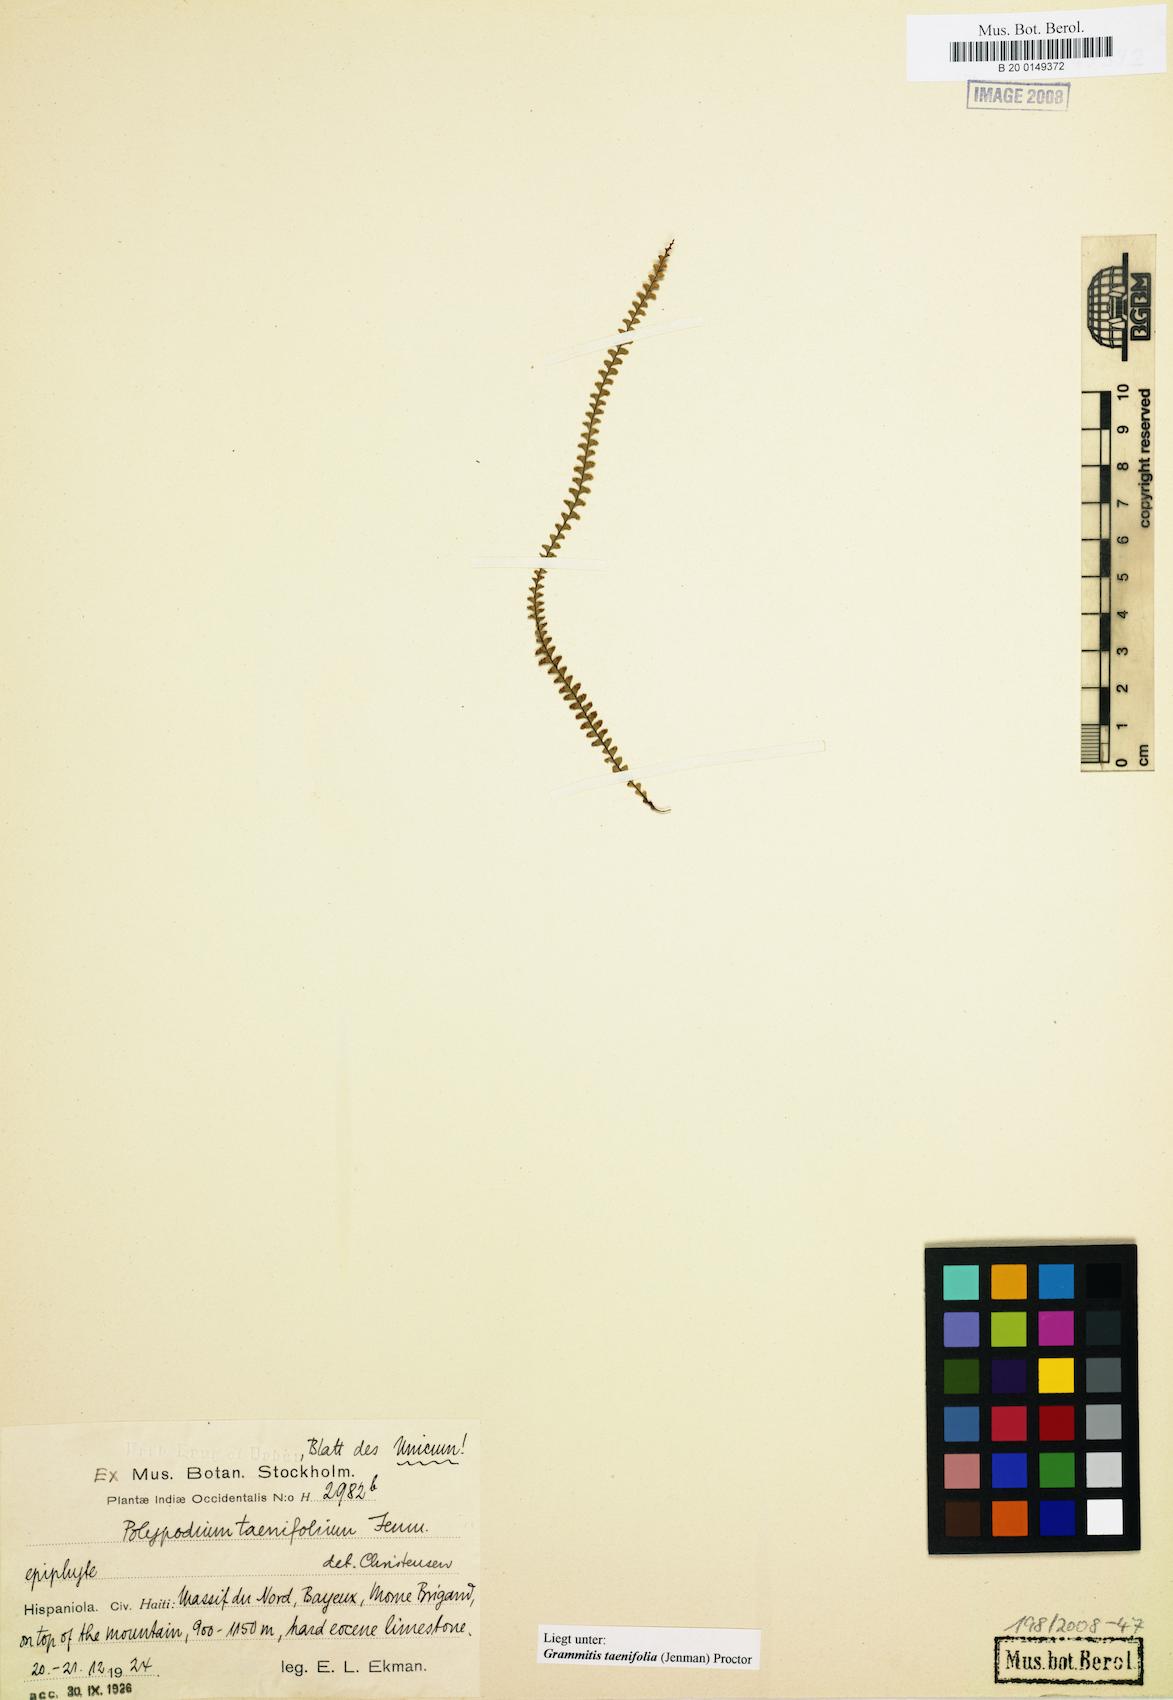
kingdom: Plantae
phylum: Tracheophyta
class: Polypodiopsida
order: Polypodiales
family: Polypodiaceae
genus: Lellingeria
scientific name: Lellingeria suspensa
